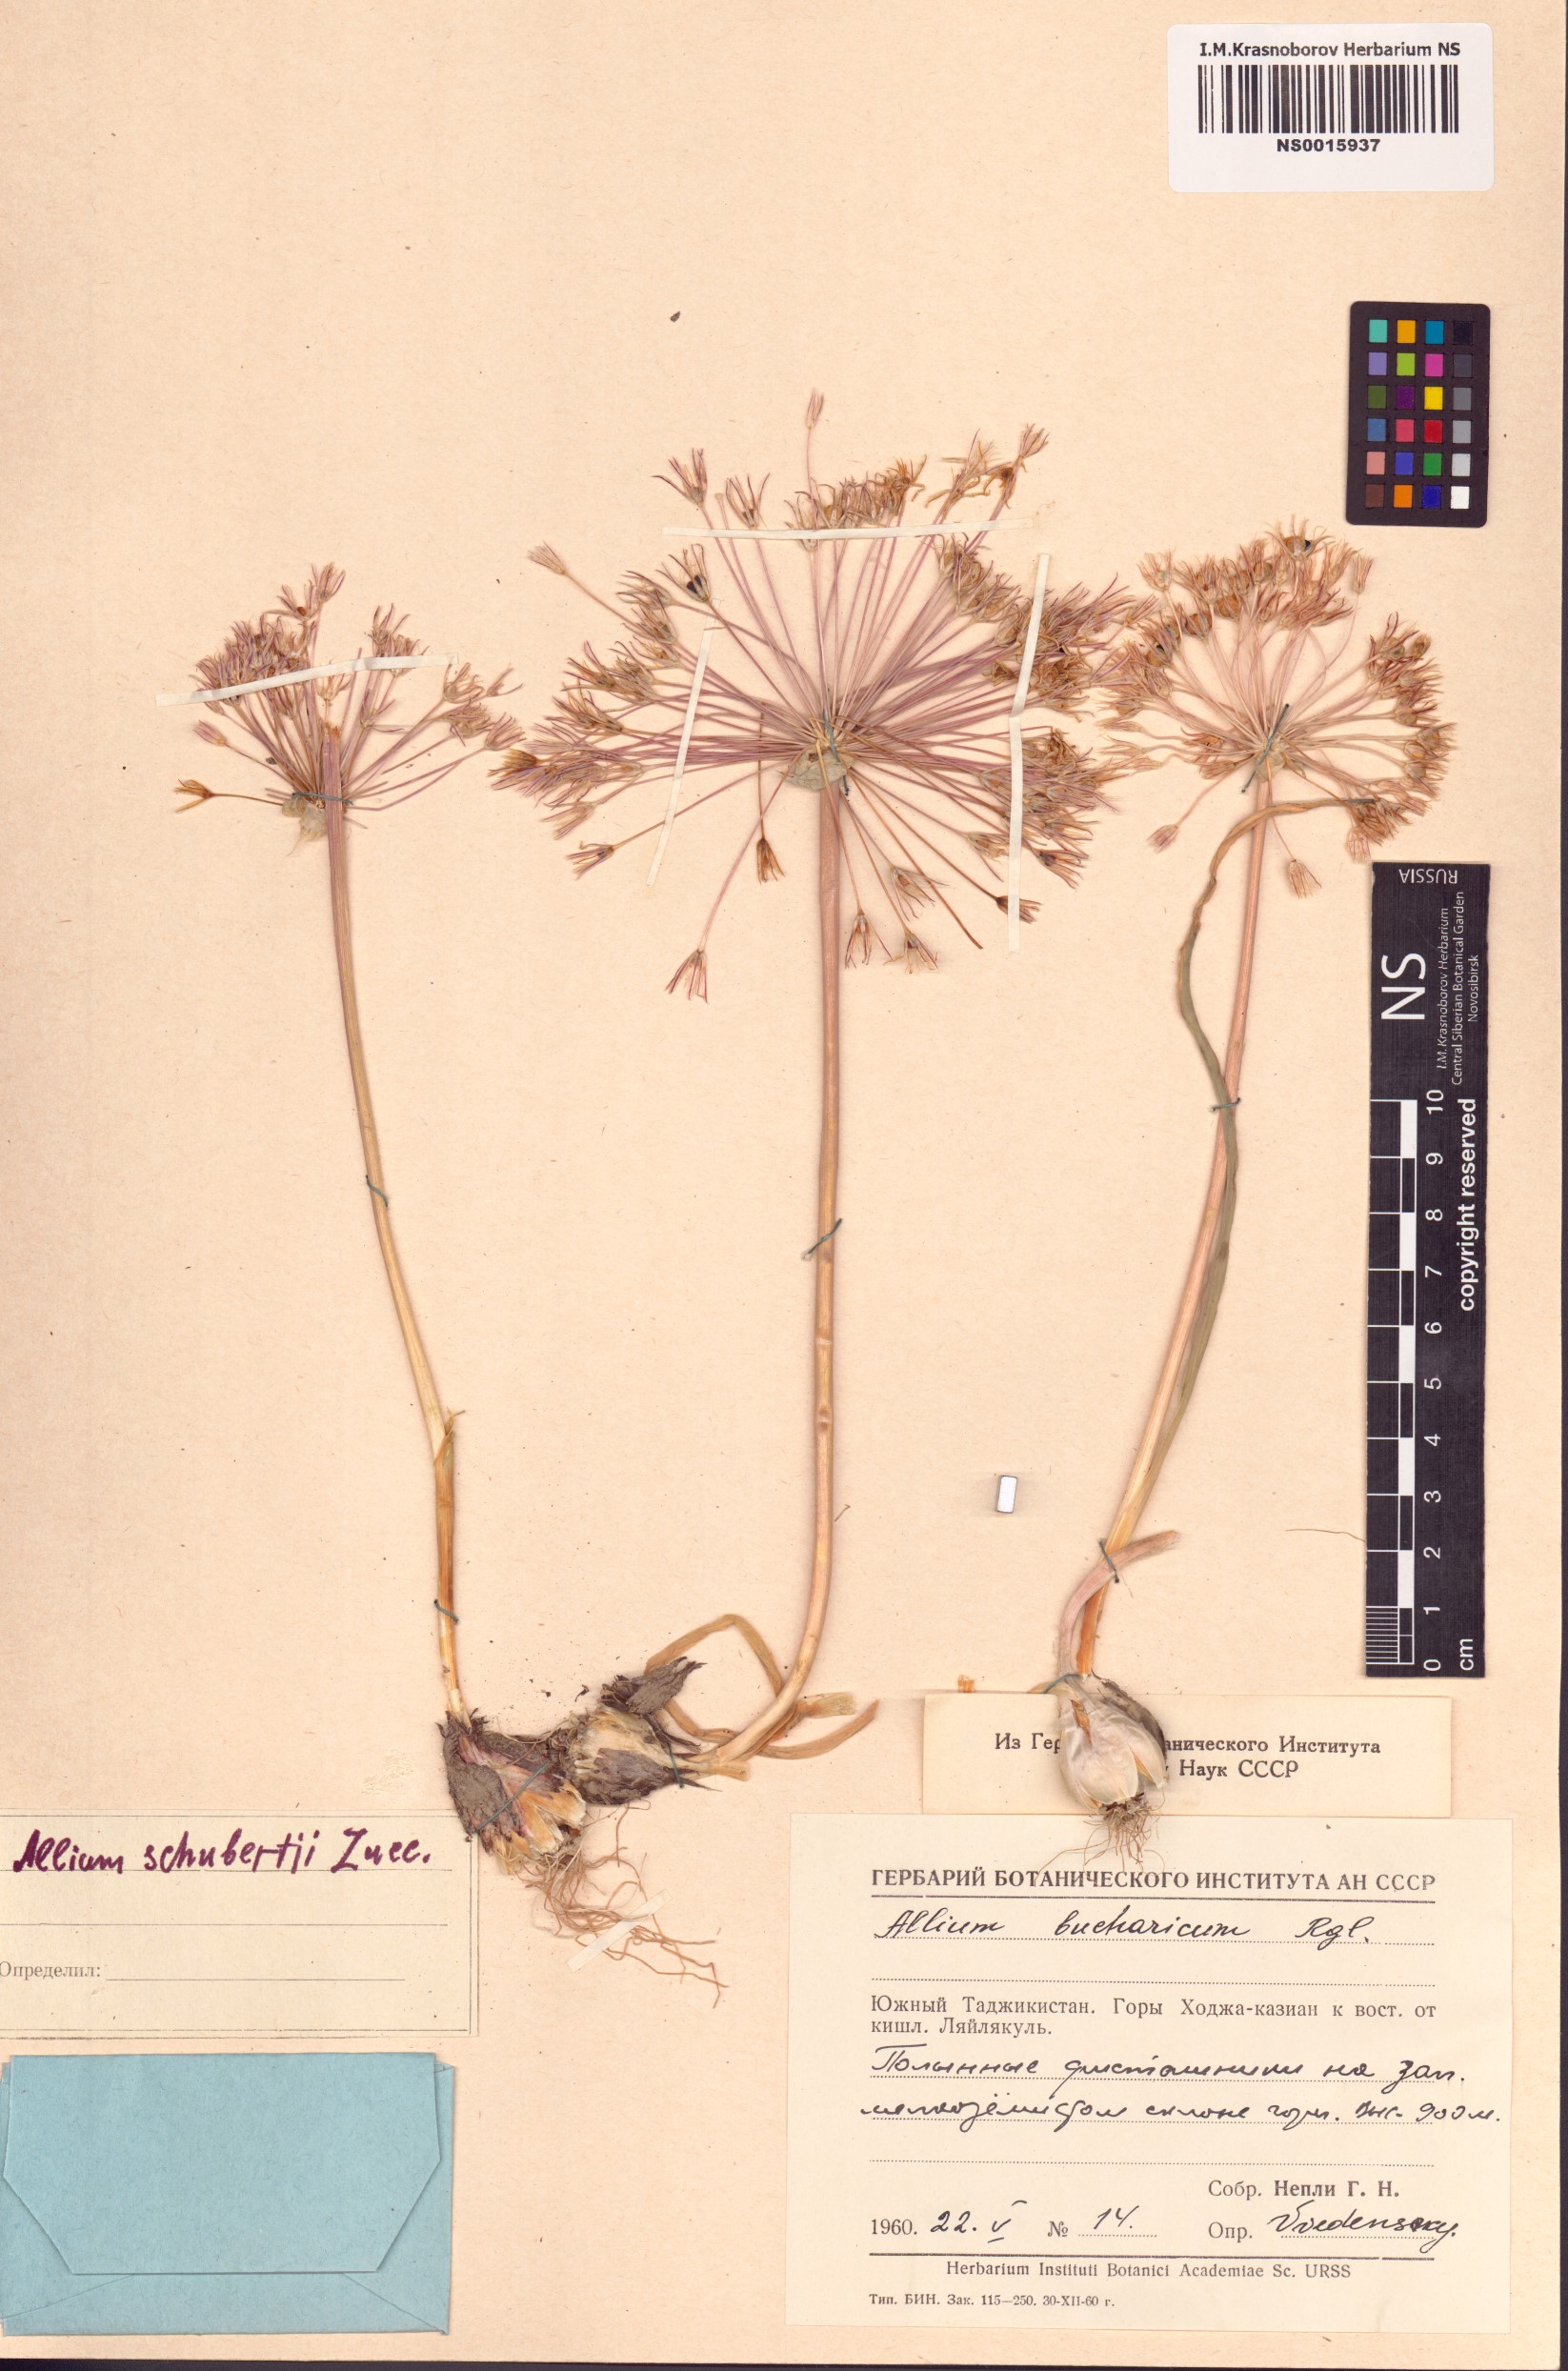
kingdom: Plantae
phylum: Tracheophyta
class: Liliopsida
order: Asparagales
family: Amaryllidaceae
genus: Allium
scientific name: Allium schubertii
